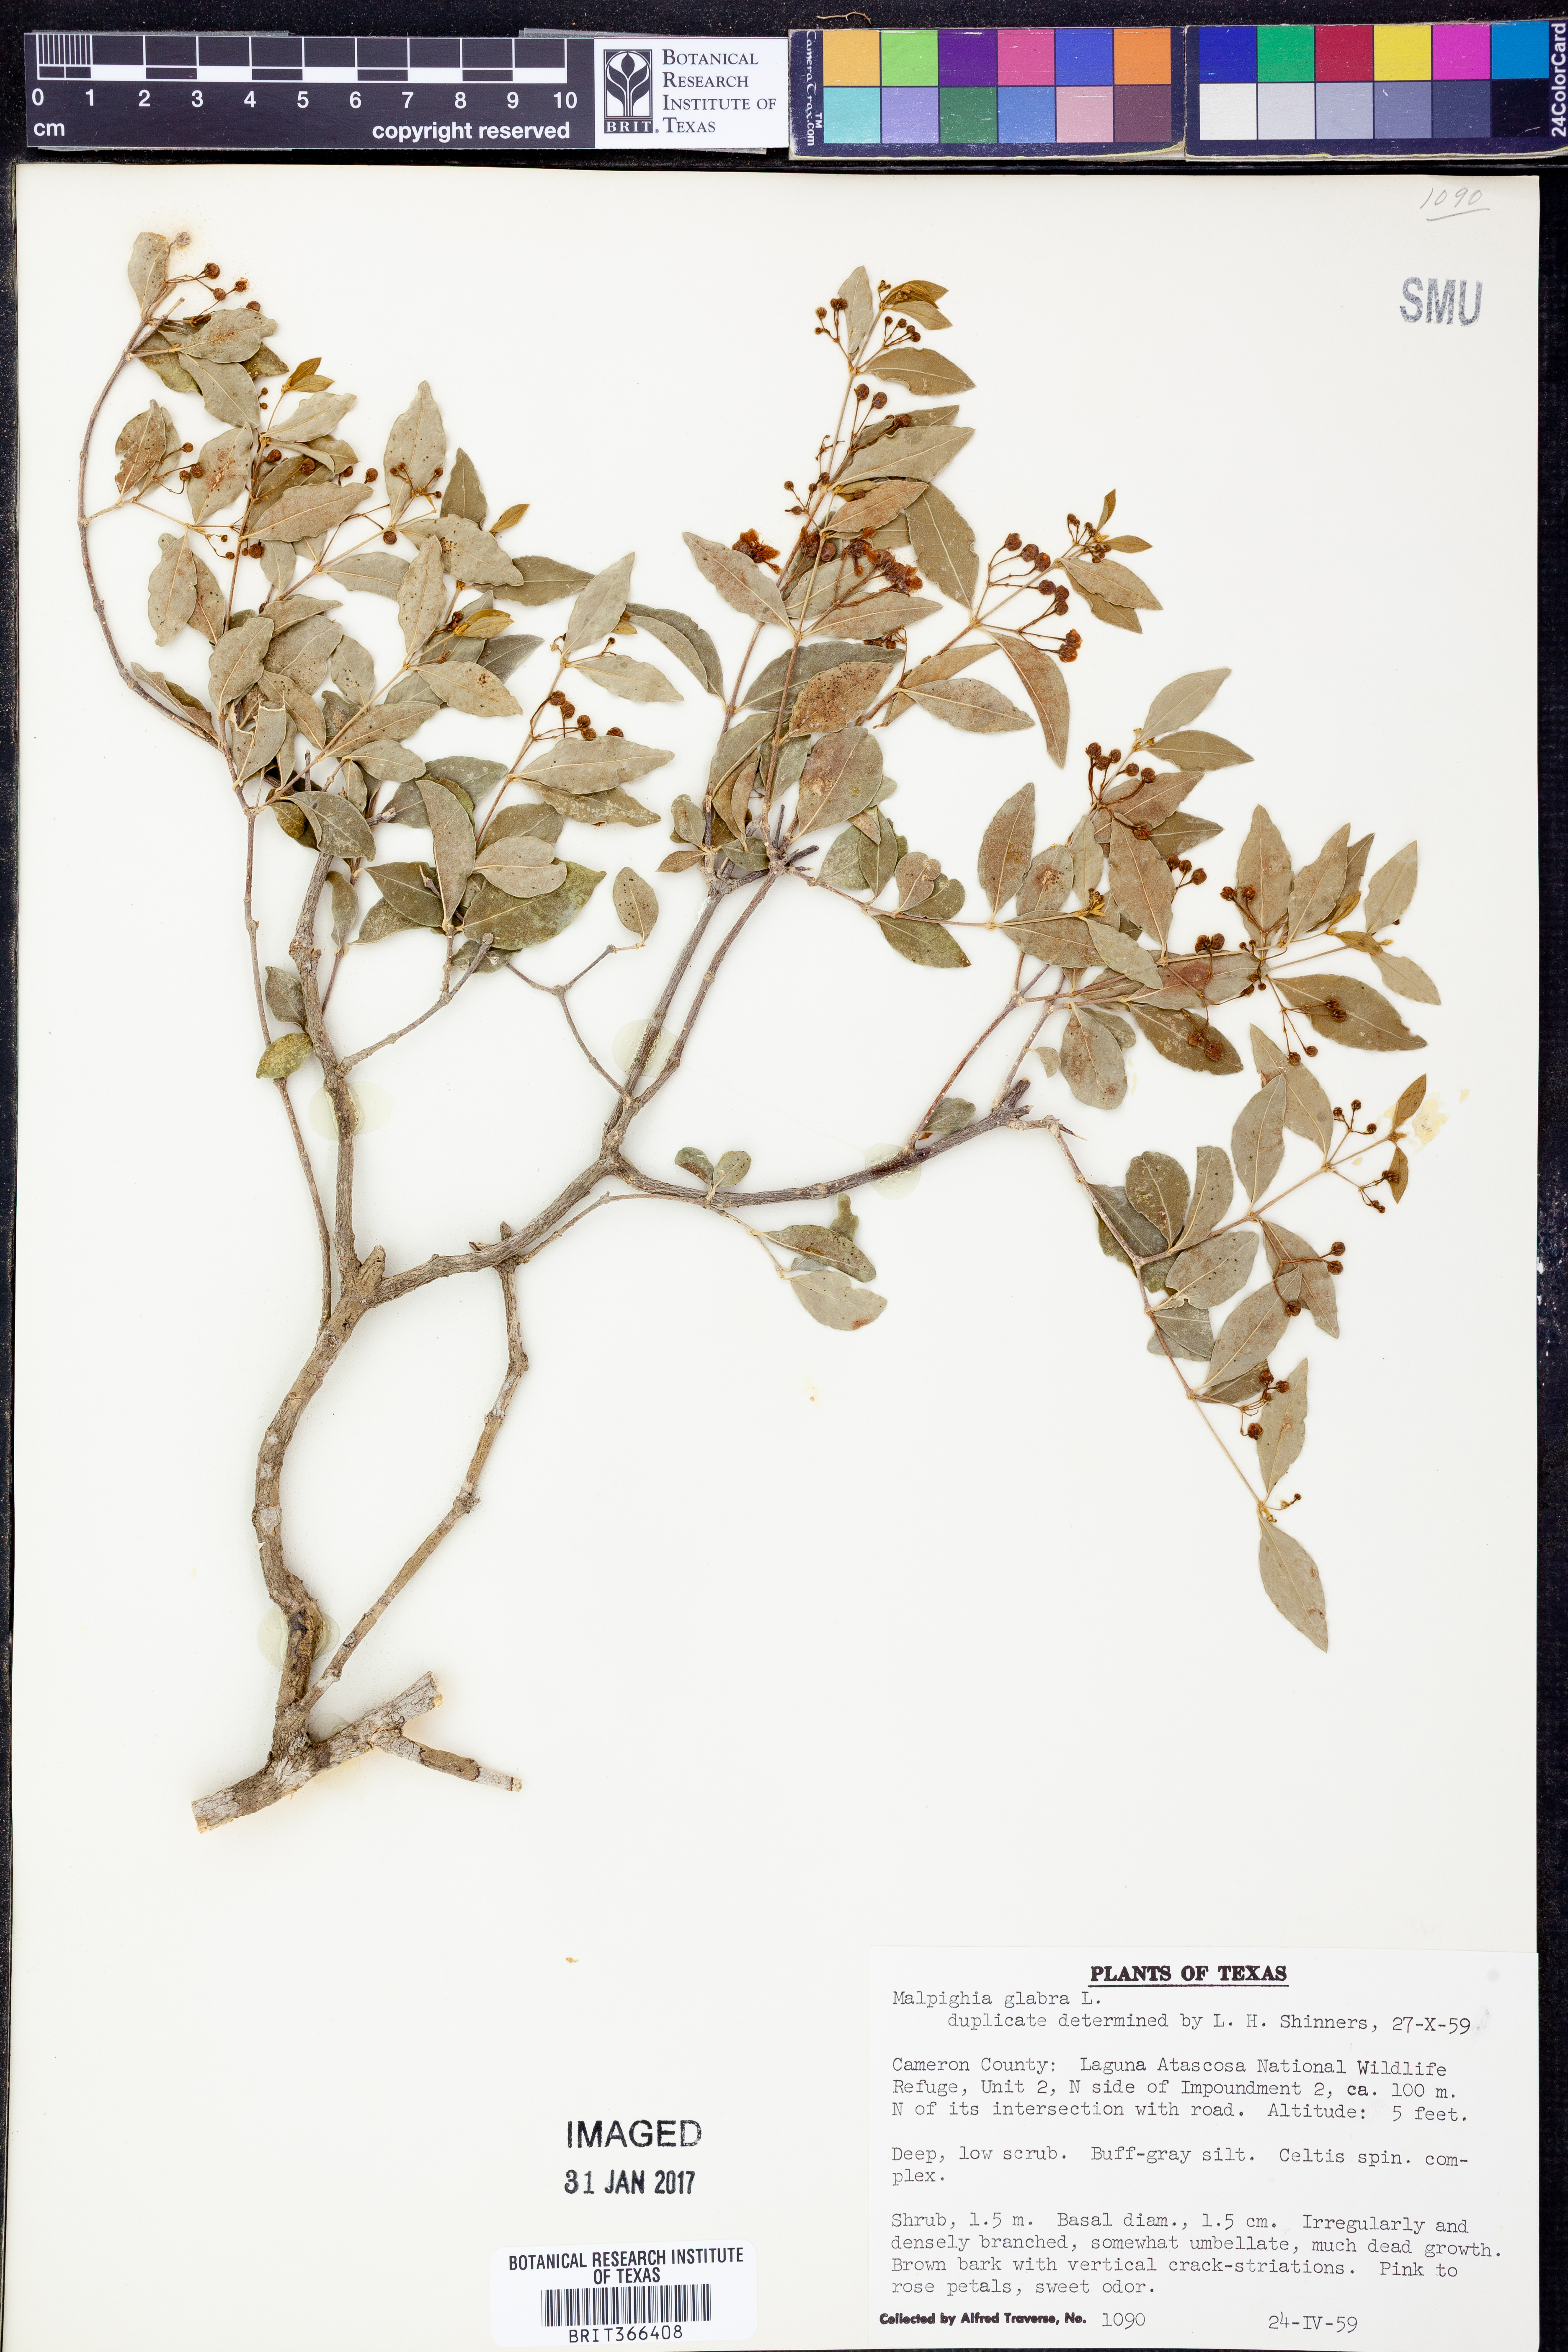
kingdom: Plantae
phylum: Tracheophyta
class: Magnoliopsida
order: Malpighiales
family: Malpighiaceae
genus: Malpighia
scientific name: Malpighia glabra
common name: Barbados cherry
